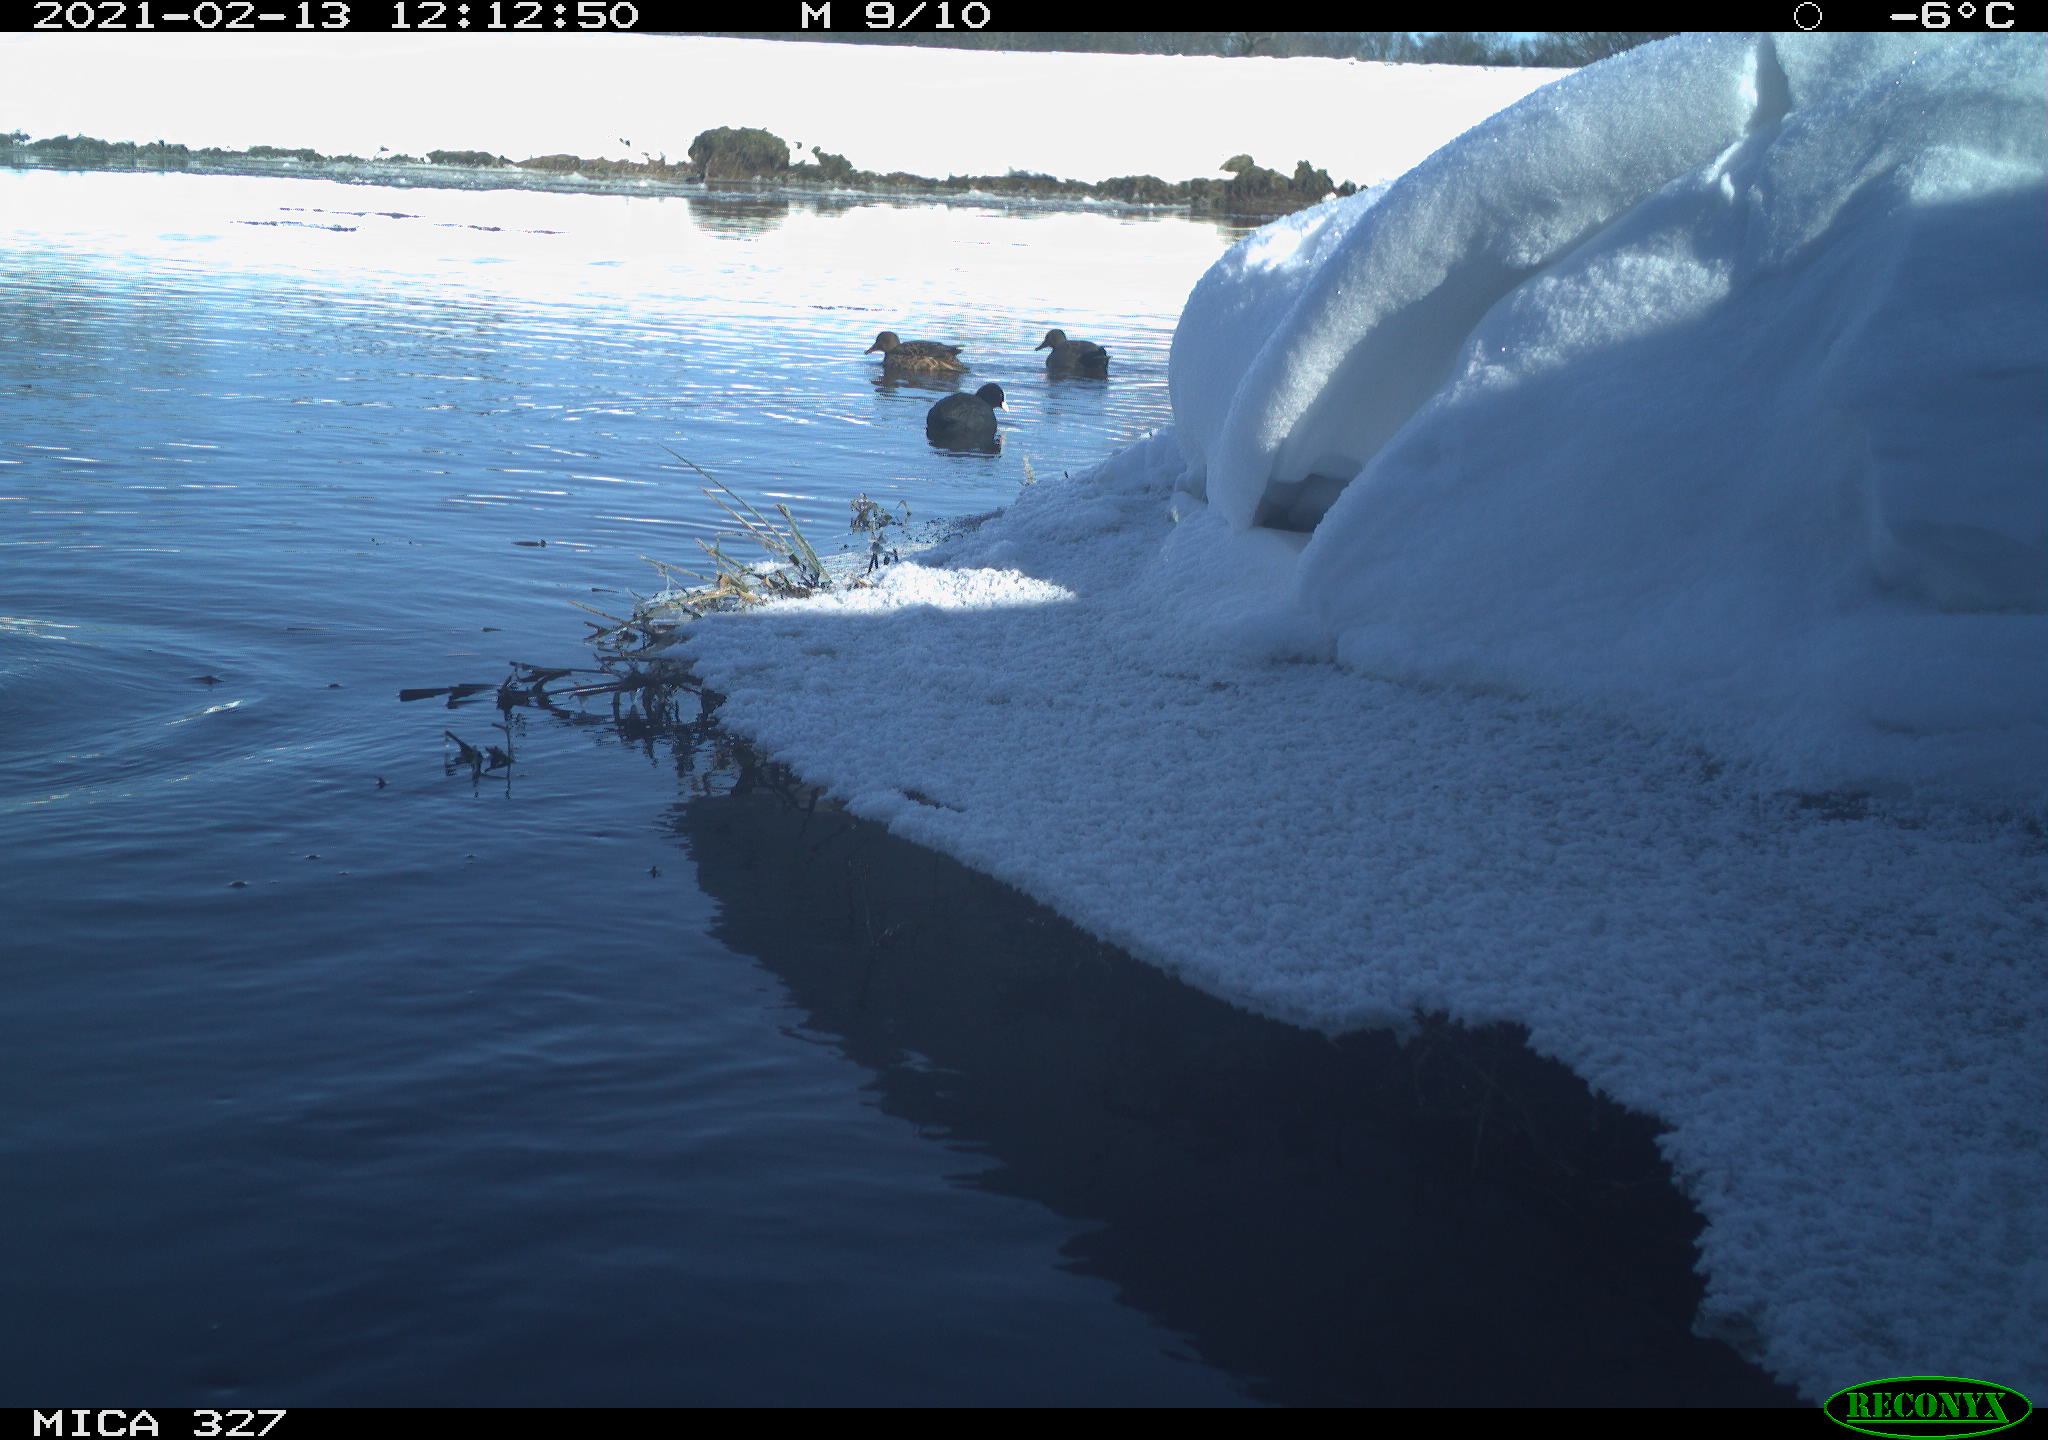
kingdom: Animalia
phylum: Chordata
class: Aves
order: Gruiformes
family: Rallidae
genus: Fulica
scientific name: Fulica atra
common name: Eurasian coot
